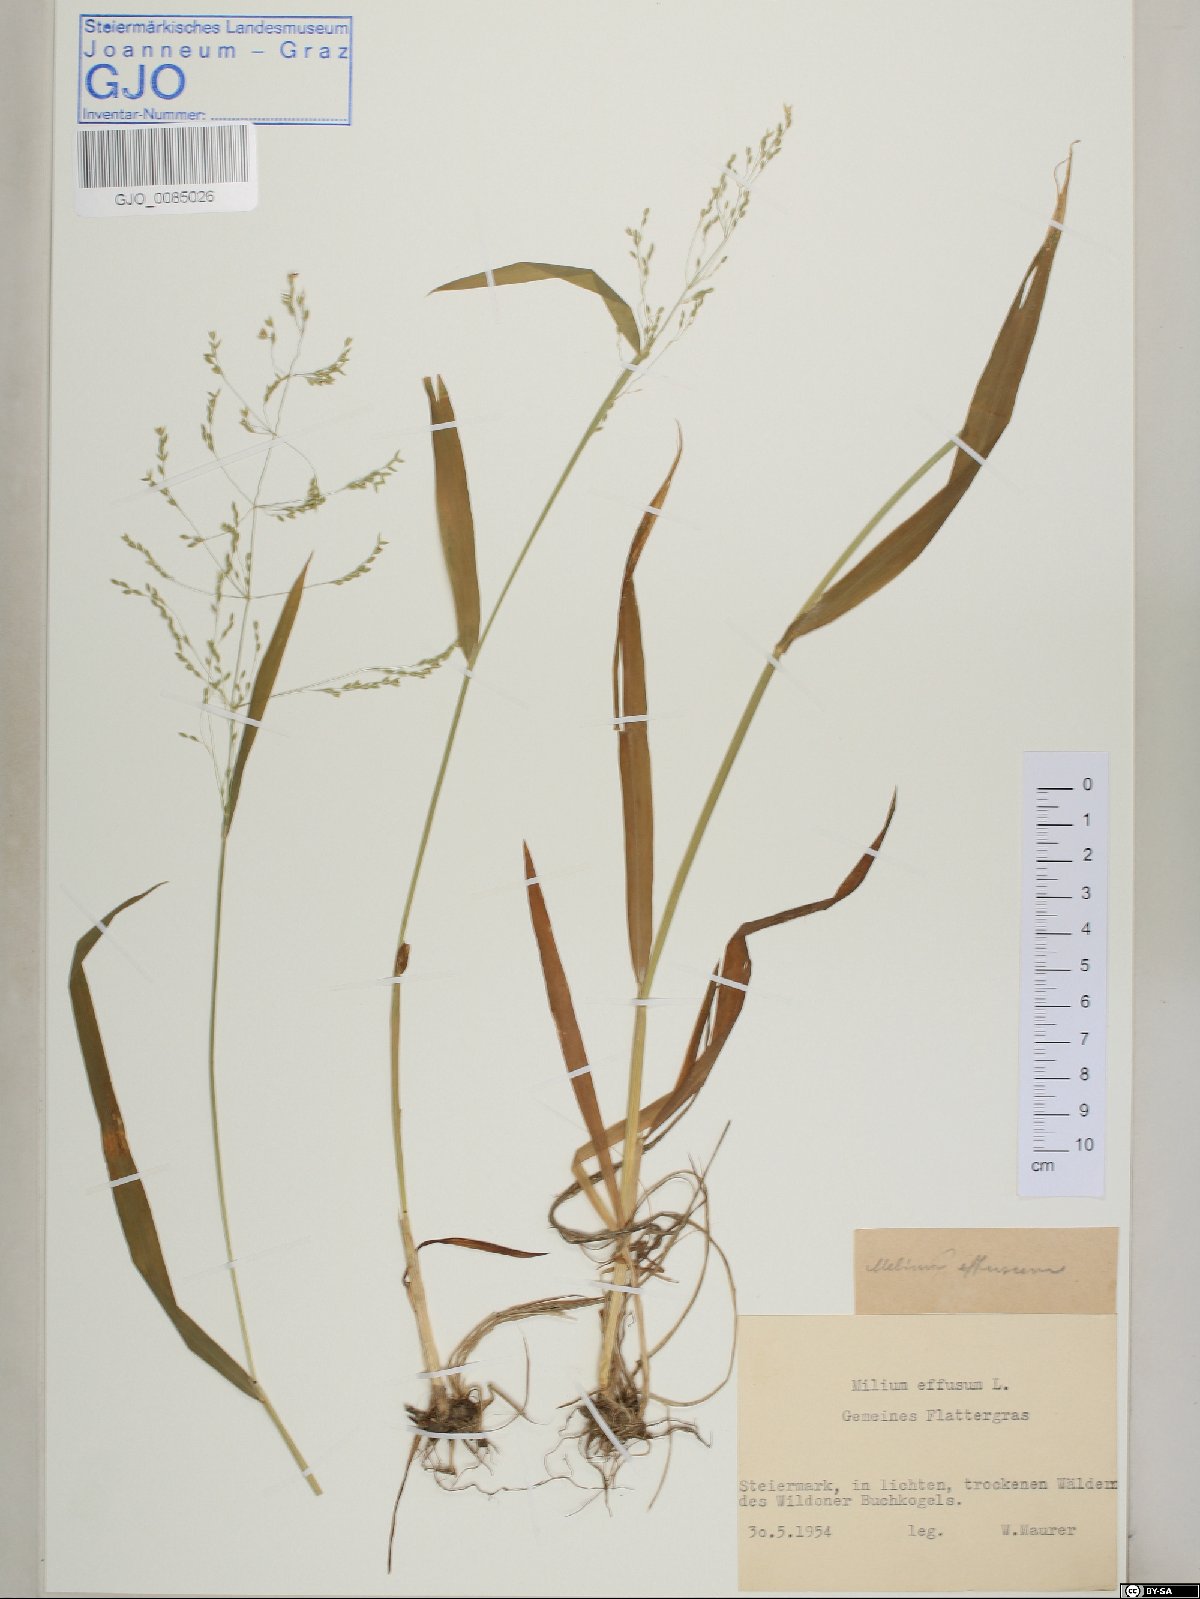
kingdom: Plantae
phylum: Tracheophyta
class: Liliopsida
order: Poales
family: Poaceae
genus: Milium
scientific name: Milium effusum
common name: Wood millet
